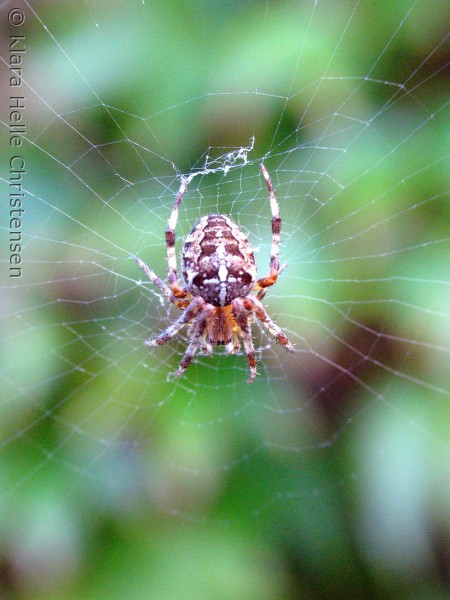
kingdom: Animalia
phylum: Arthropoda
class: Arachnida
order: Araneae
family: Araneidae
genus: Araneus
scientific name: Araneus diadematus
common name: Korsedderkop
